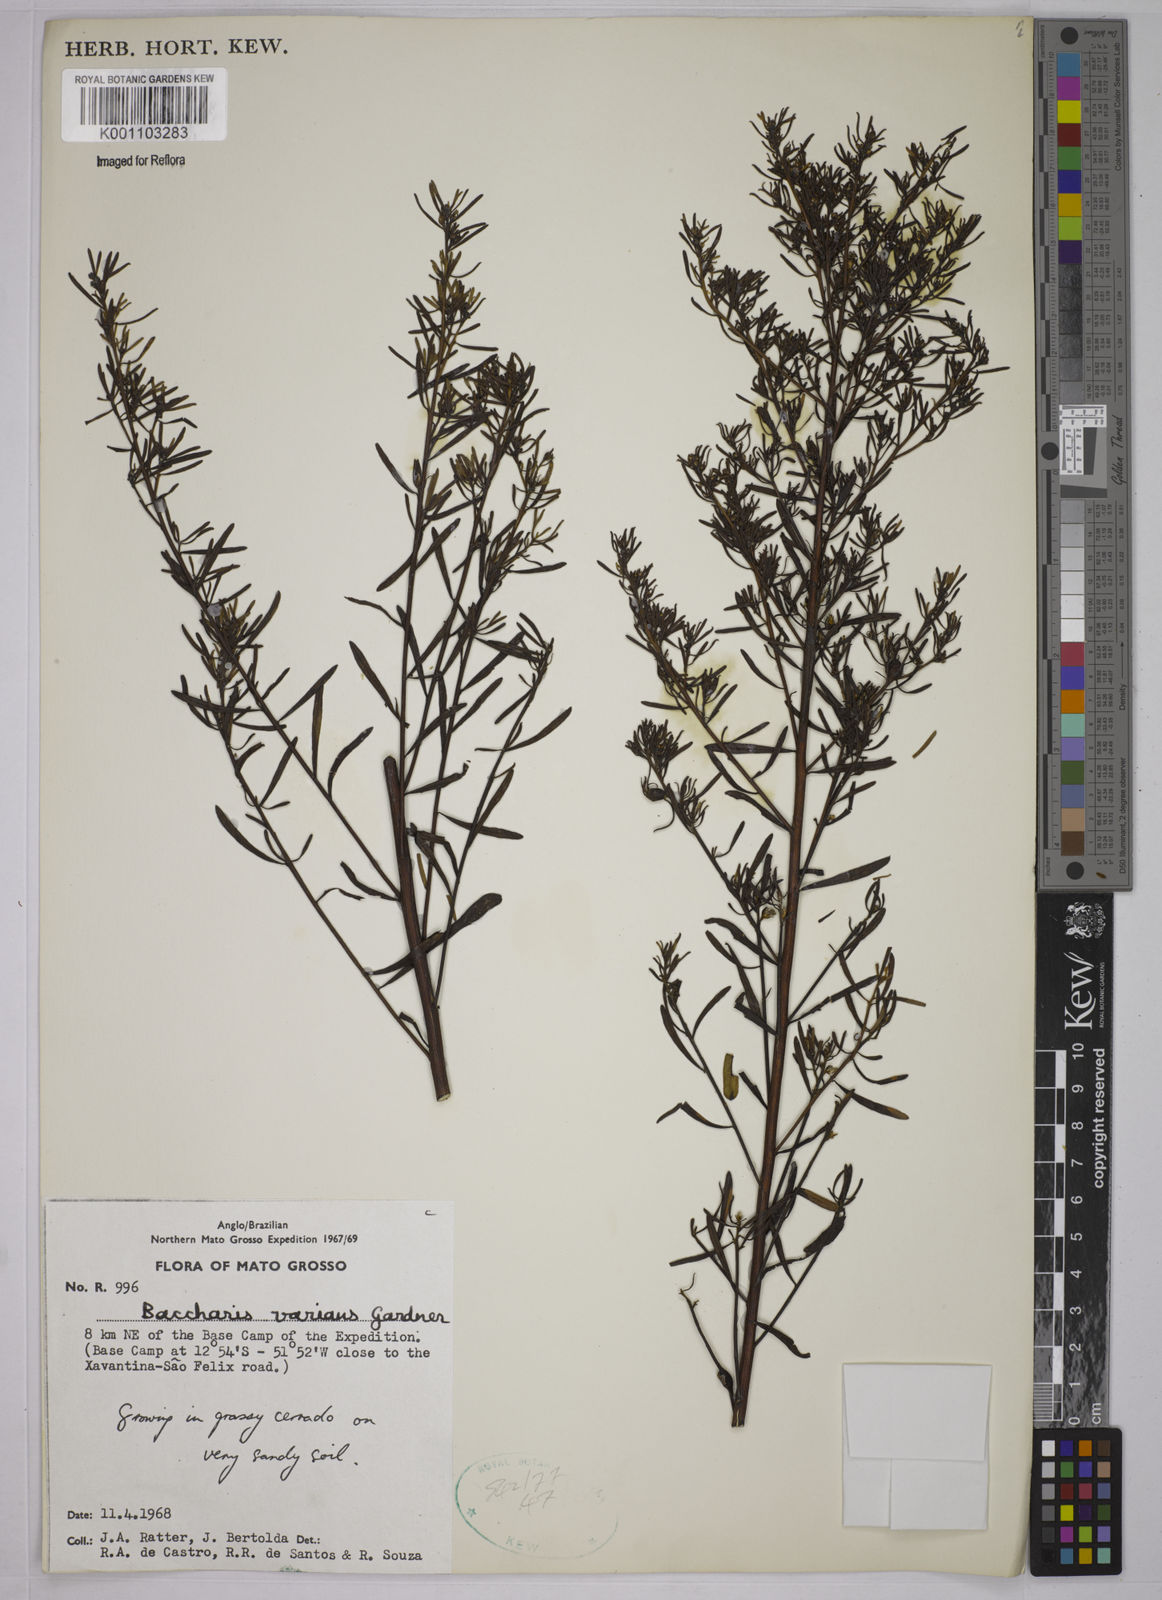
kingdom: Plantae
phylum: Tracheophyta
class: Magnoliopsida
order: Asterales
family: Asteraceae
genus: Baccharis
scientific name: Baccharis varians
